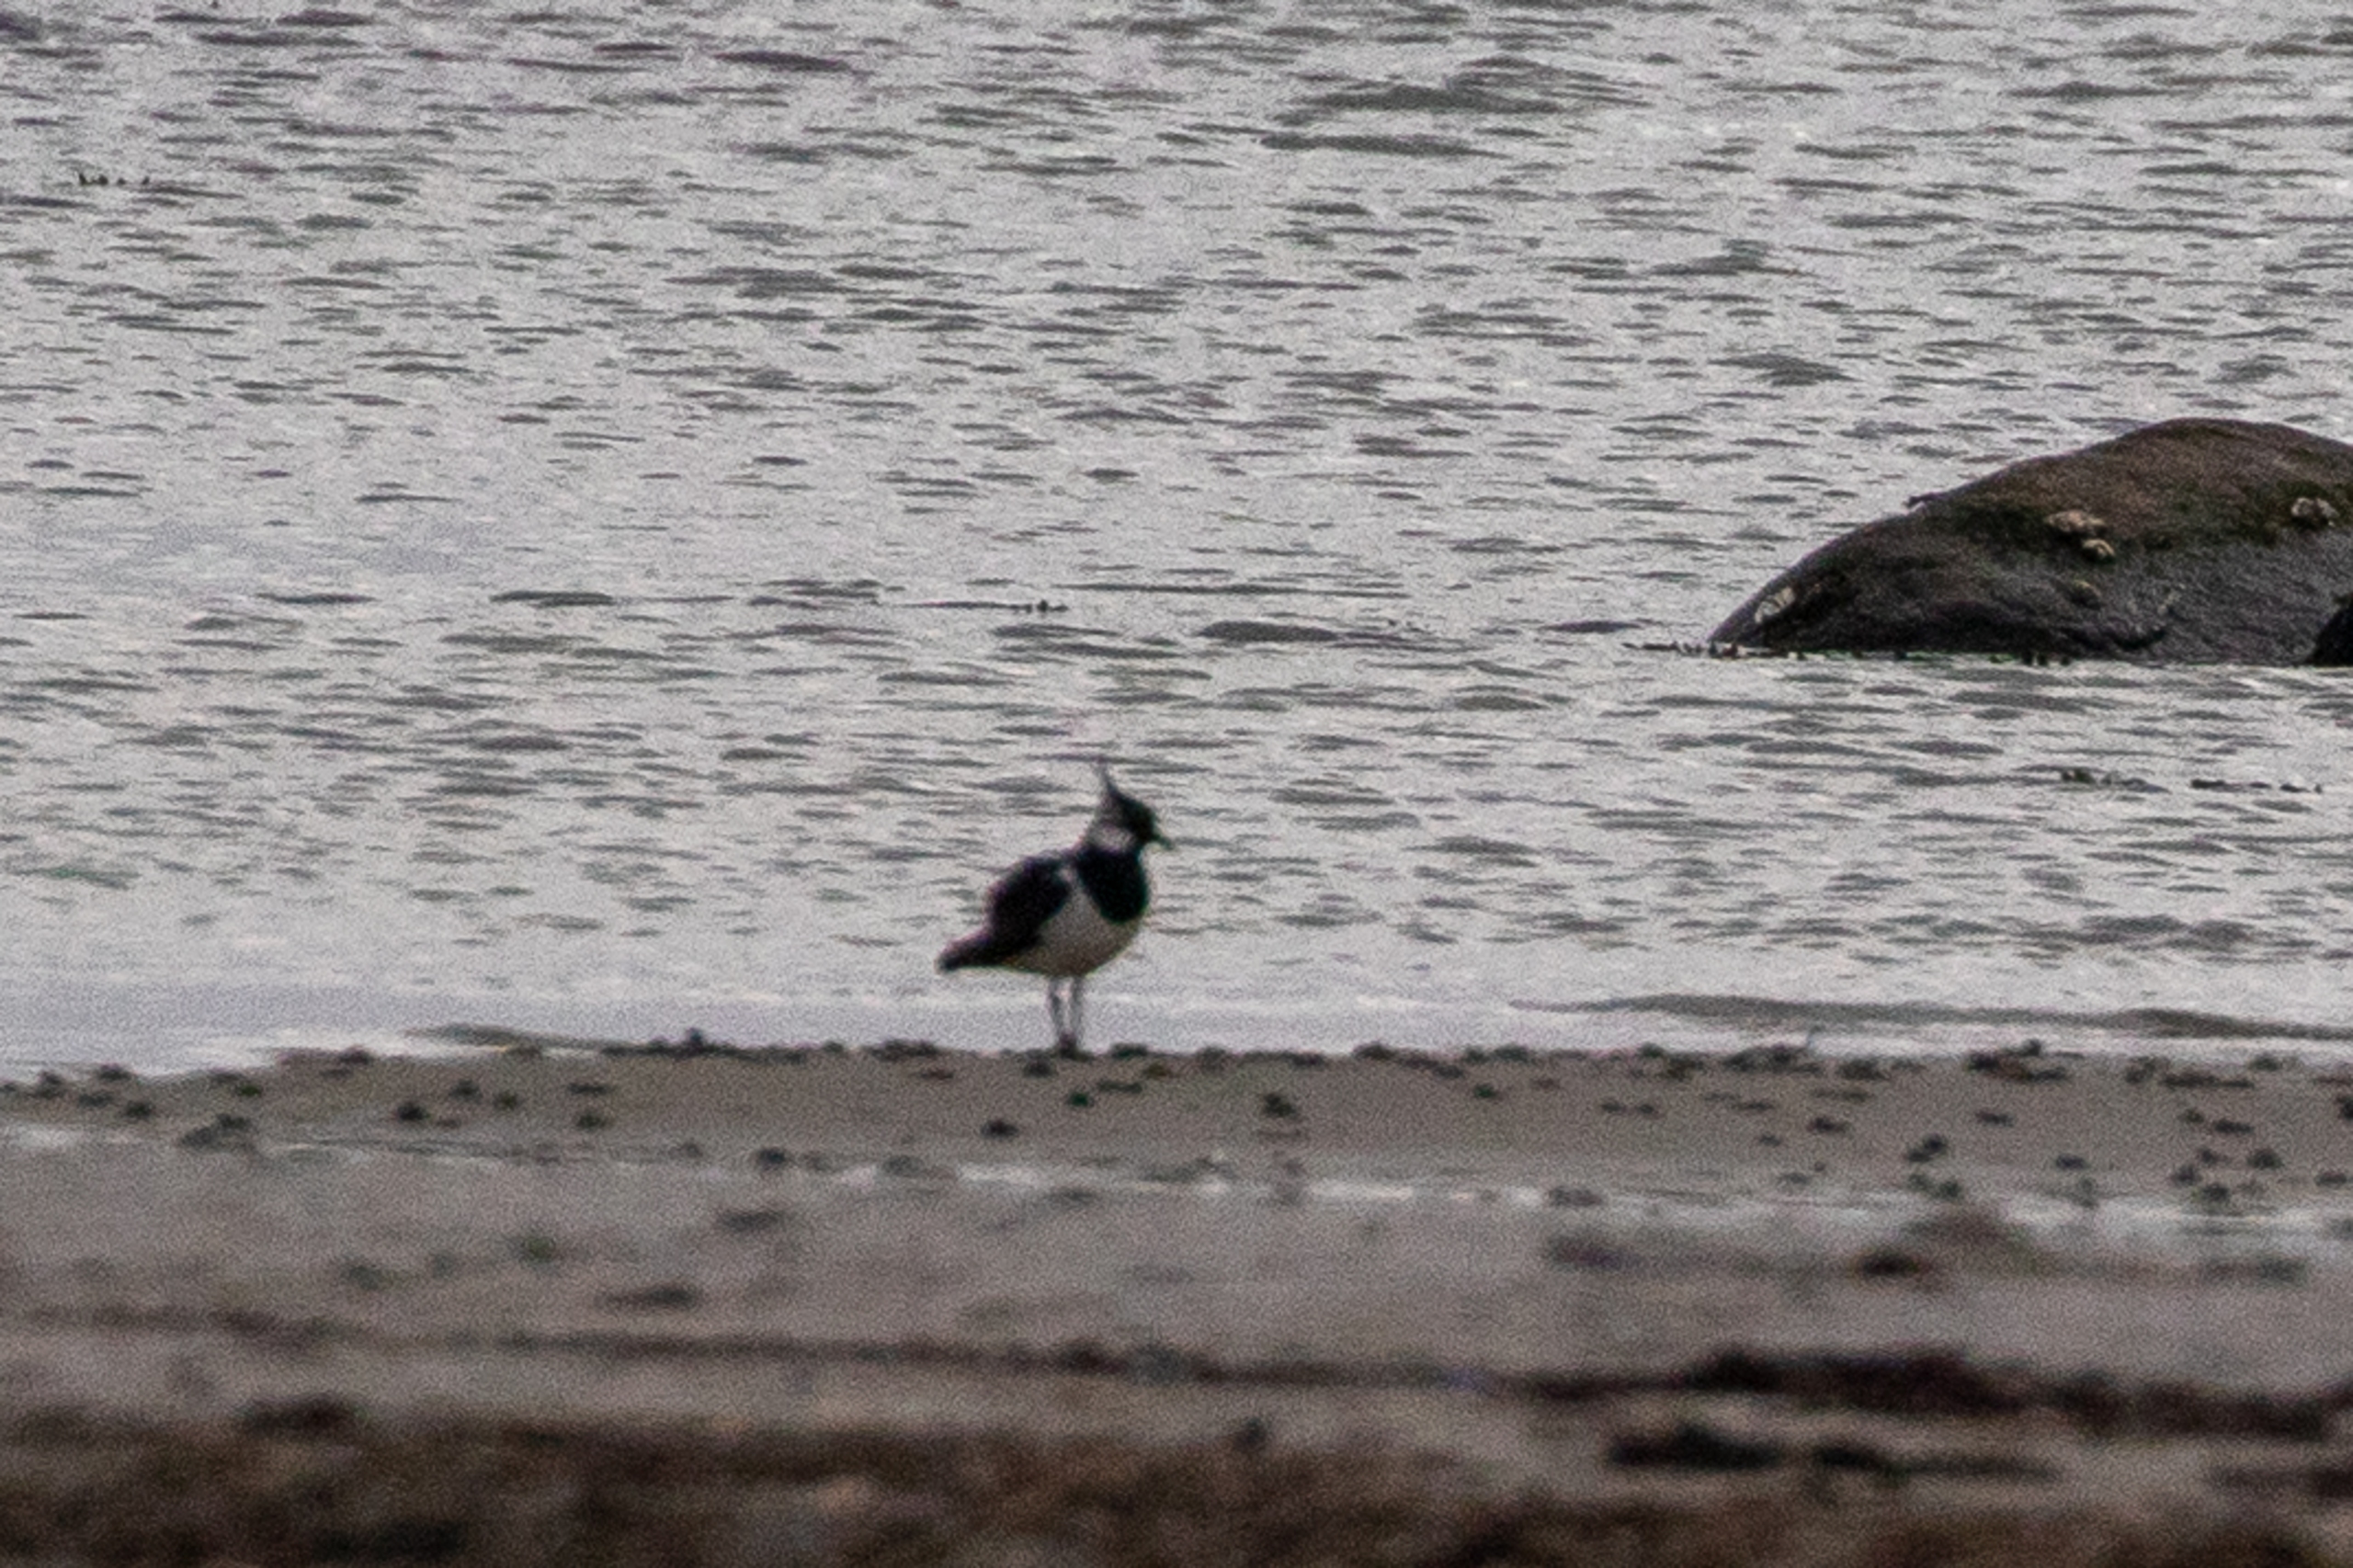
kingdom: Animalia
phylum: Chordata
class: Aves
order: Charadriiformes
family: Charadriidae
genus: Vanellus
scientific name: Vanellus vanellus
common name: Vibe
